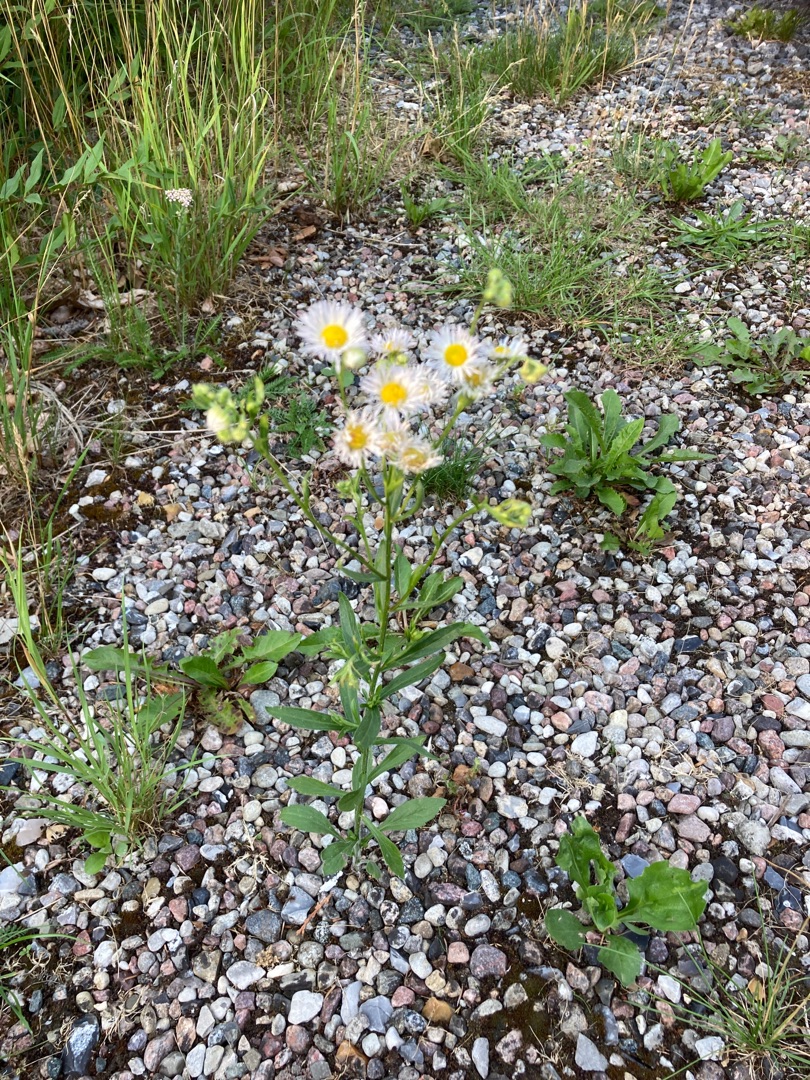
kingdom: Plantae
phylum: Tracheophyta
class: Magnoliopsida
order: Asterales
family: Asteraceae
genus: Erigeron
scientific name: Erigeron annuus
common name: Smalstråle
